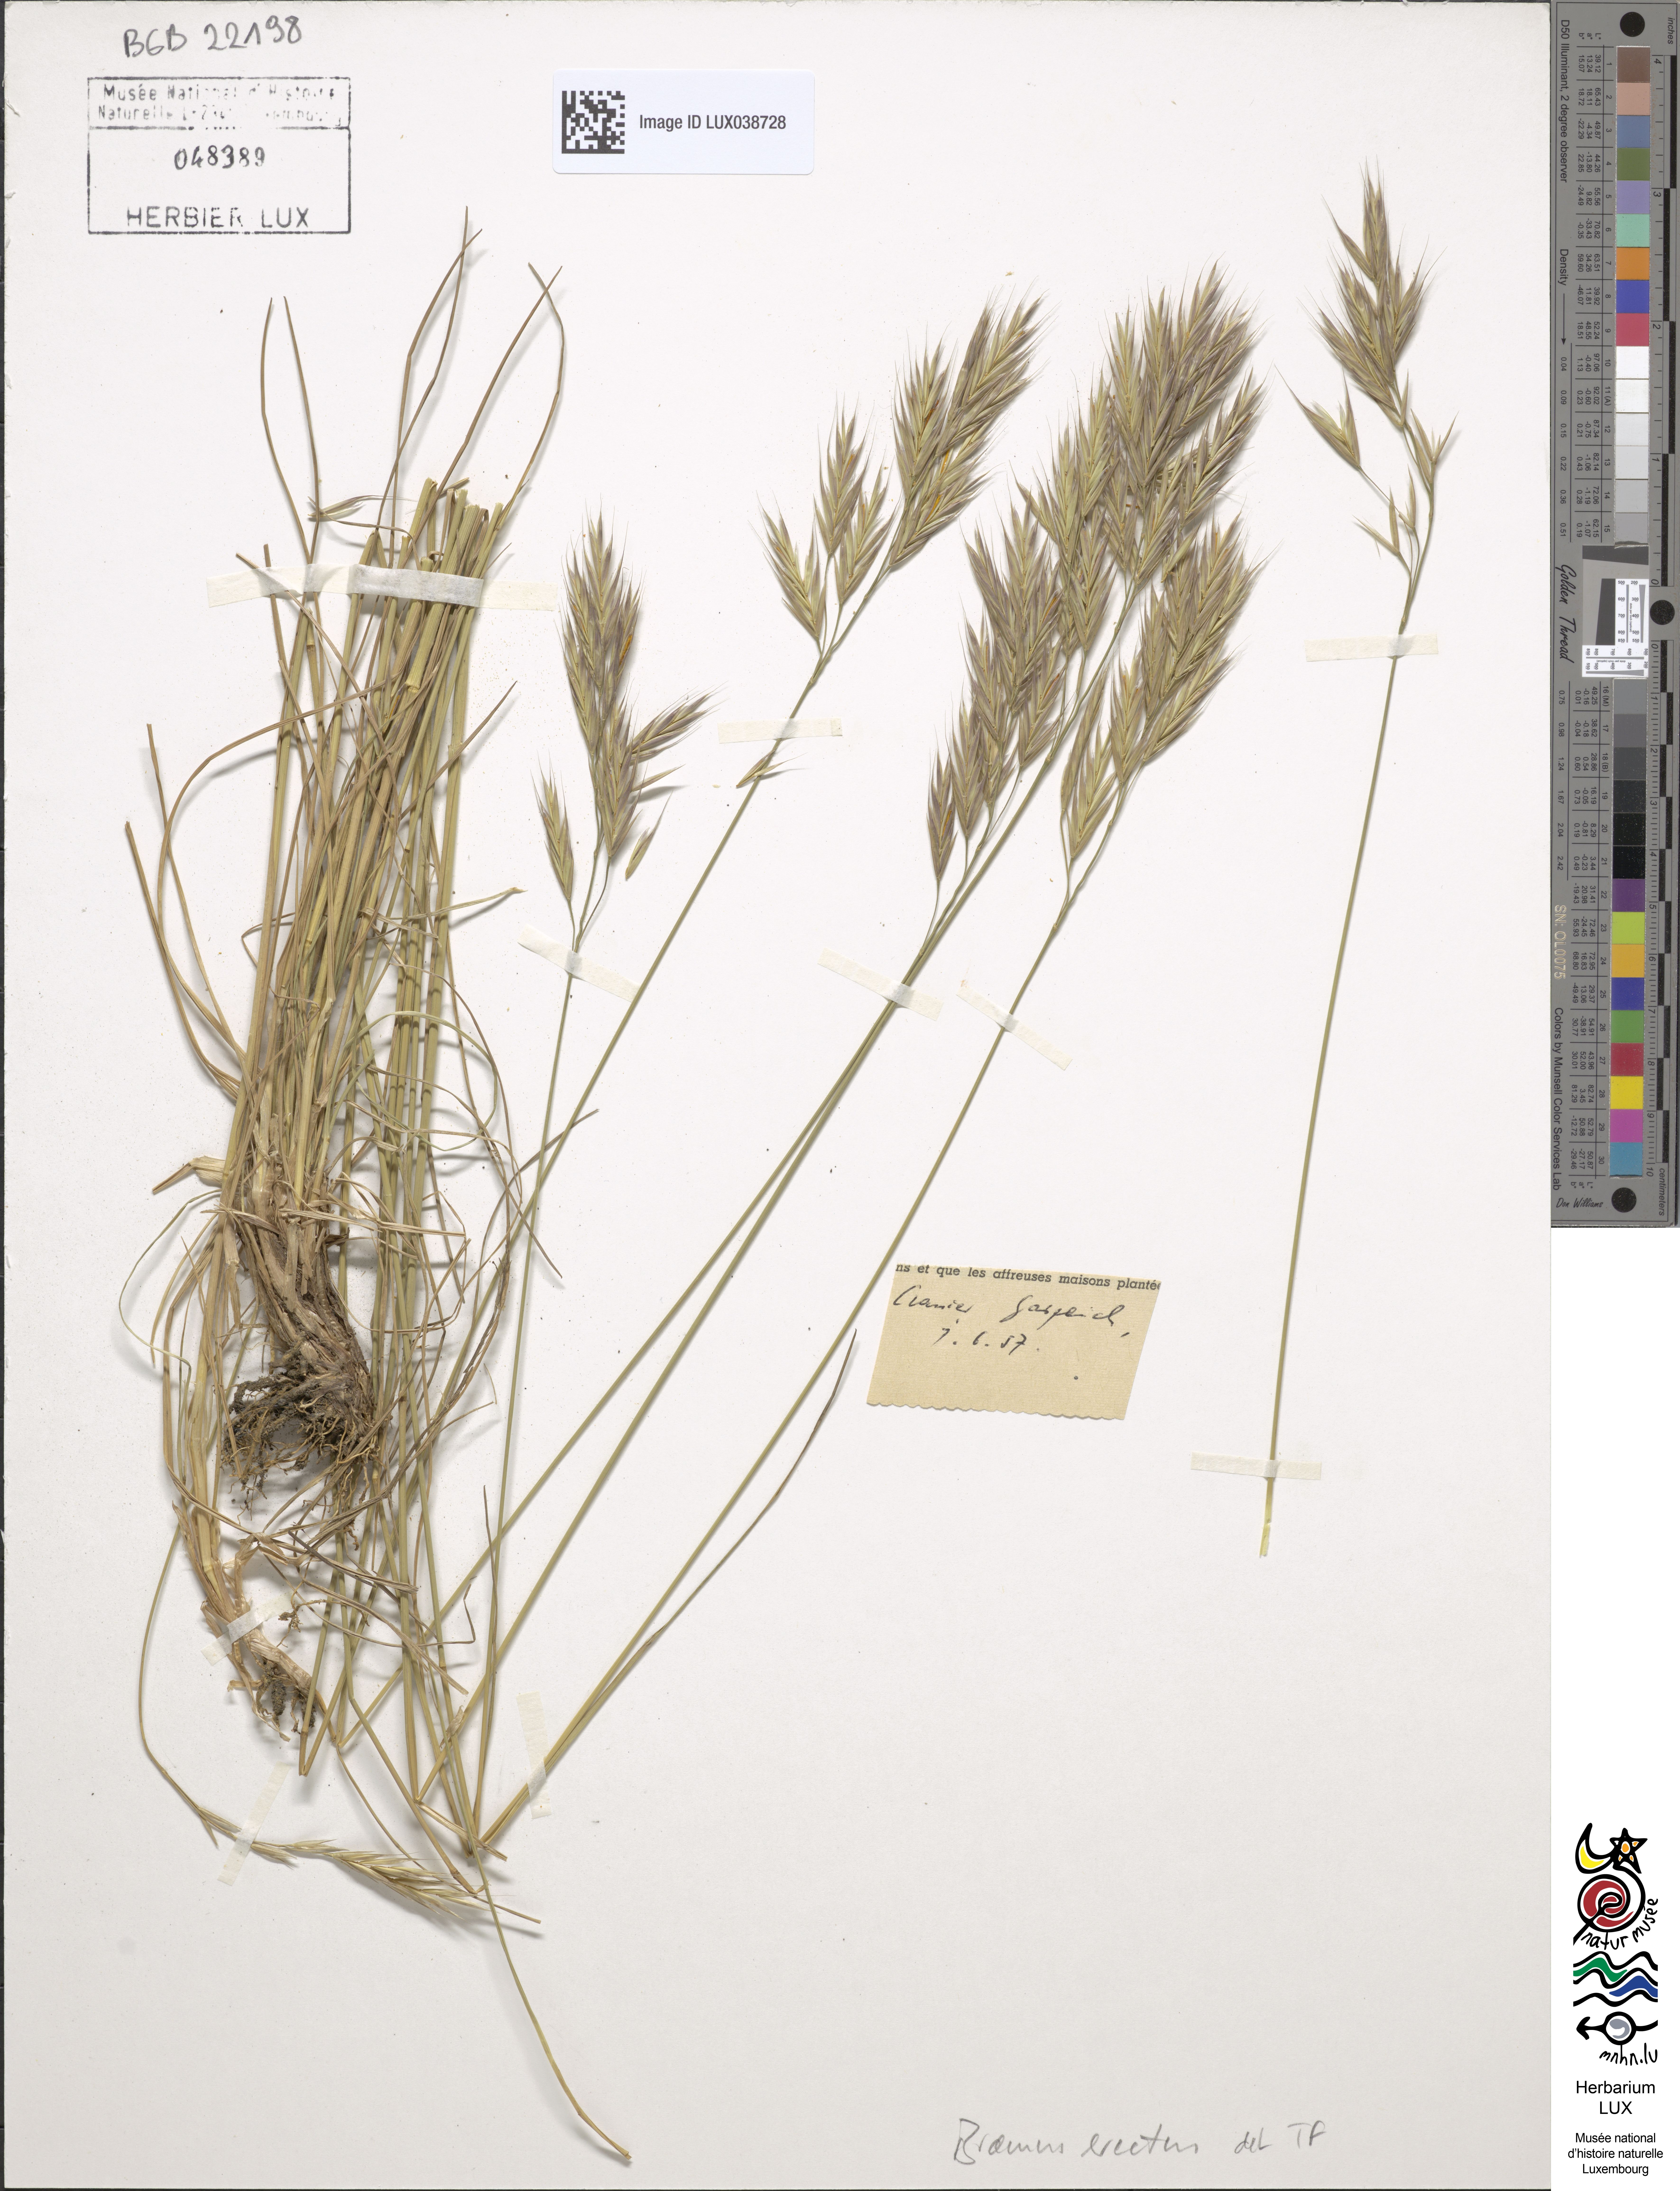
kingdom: Plantae
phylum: Tracheophyta
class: Liliopsida
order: Poales
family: Poaceae
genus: Bromus
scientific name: Bromus erectus
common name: Erect brome
